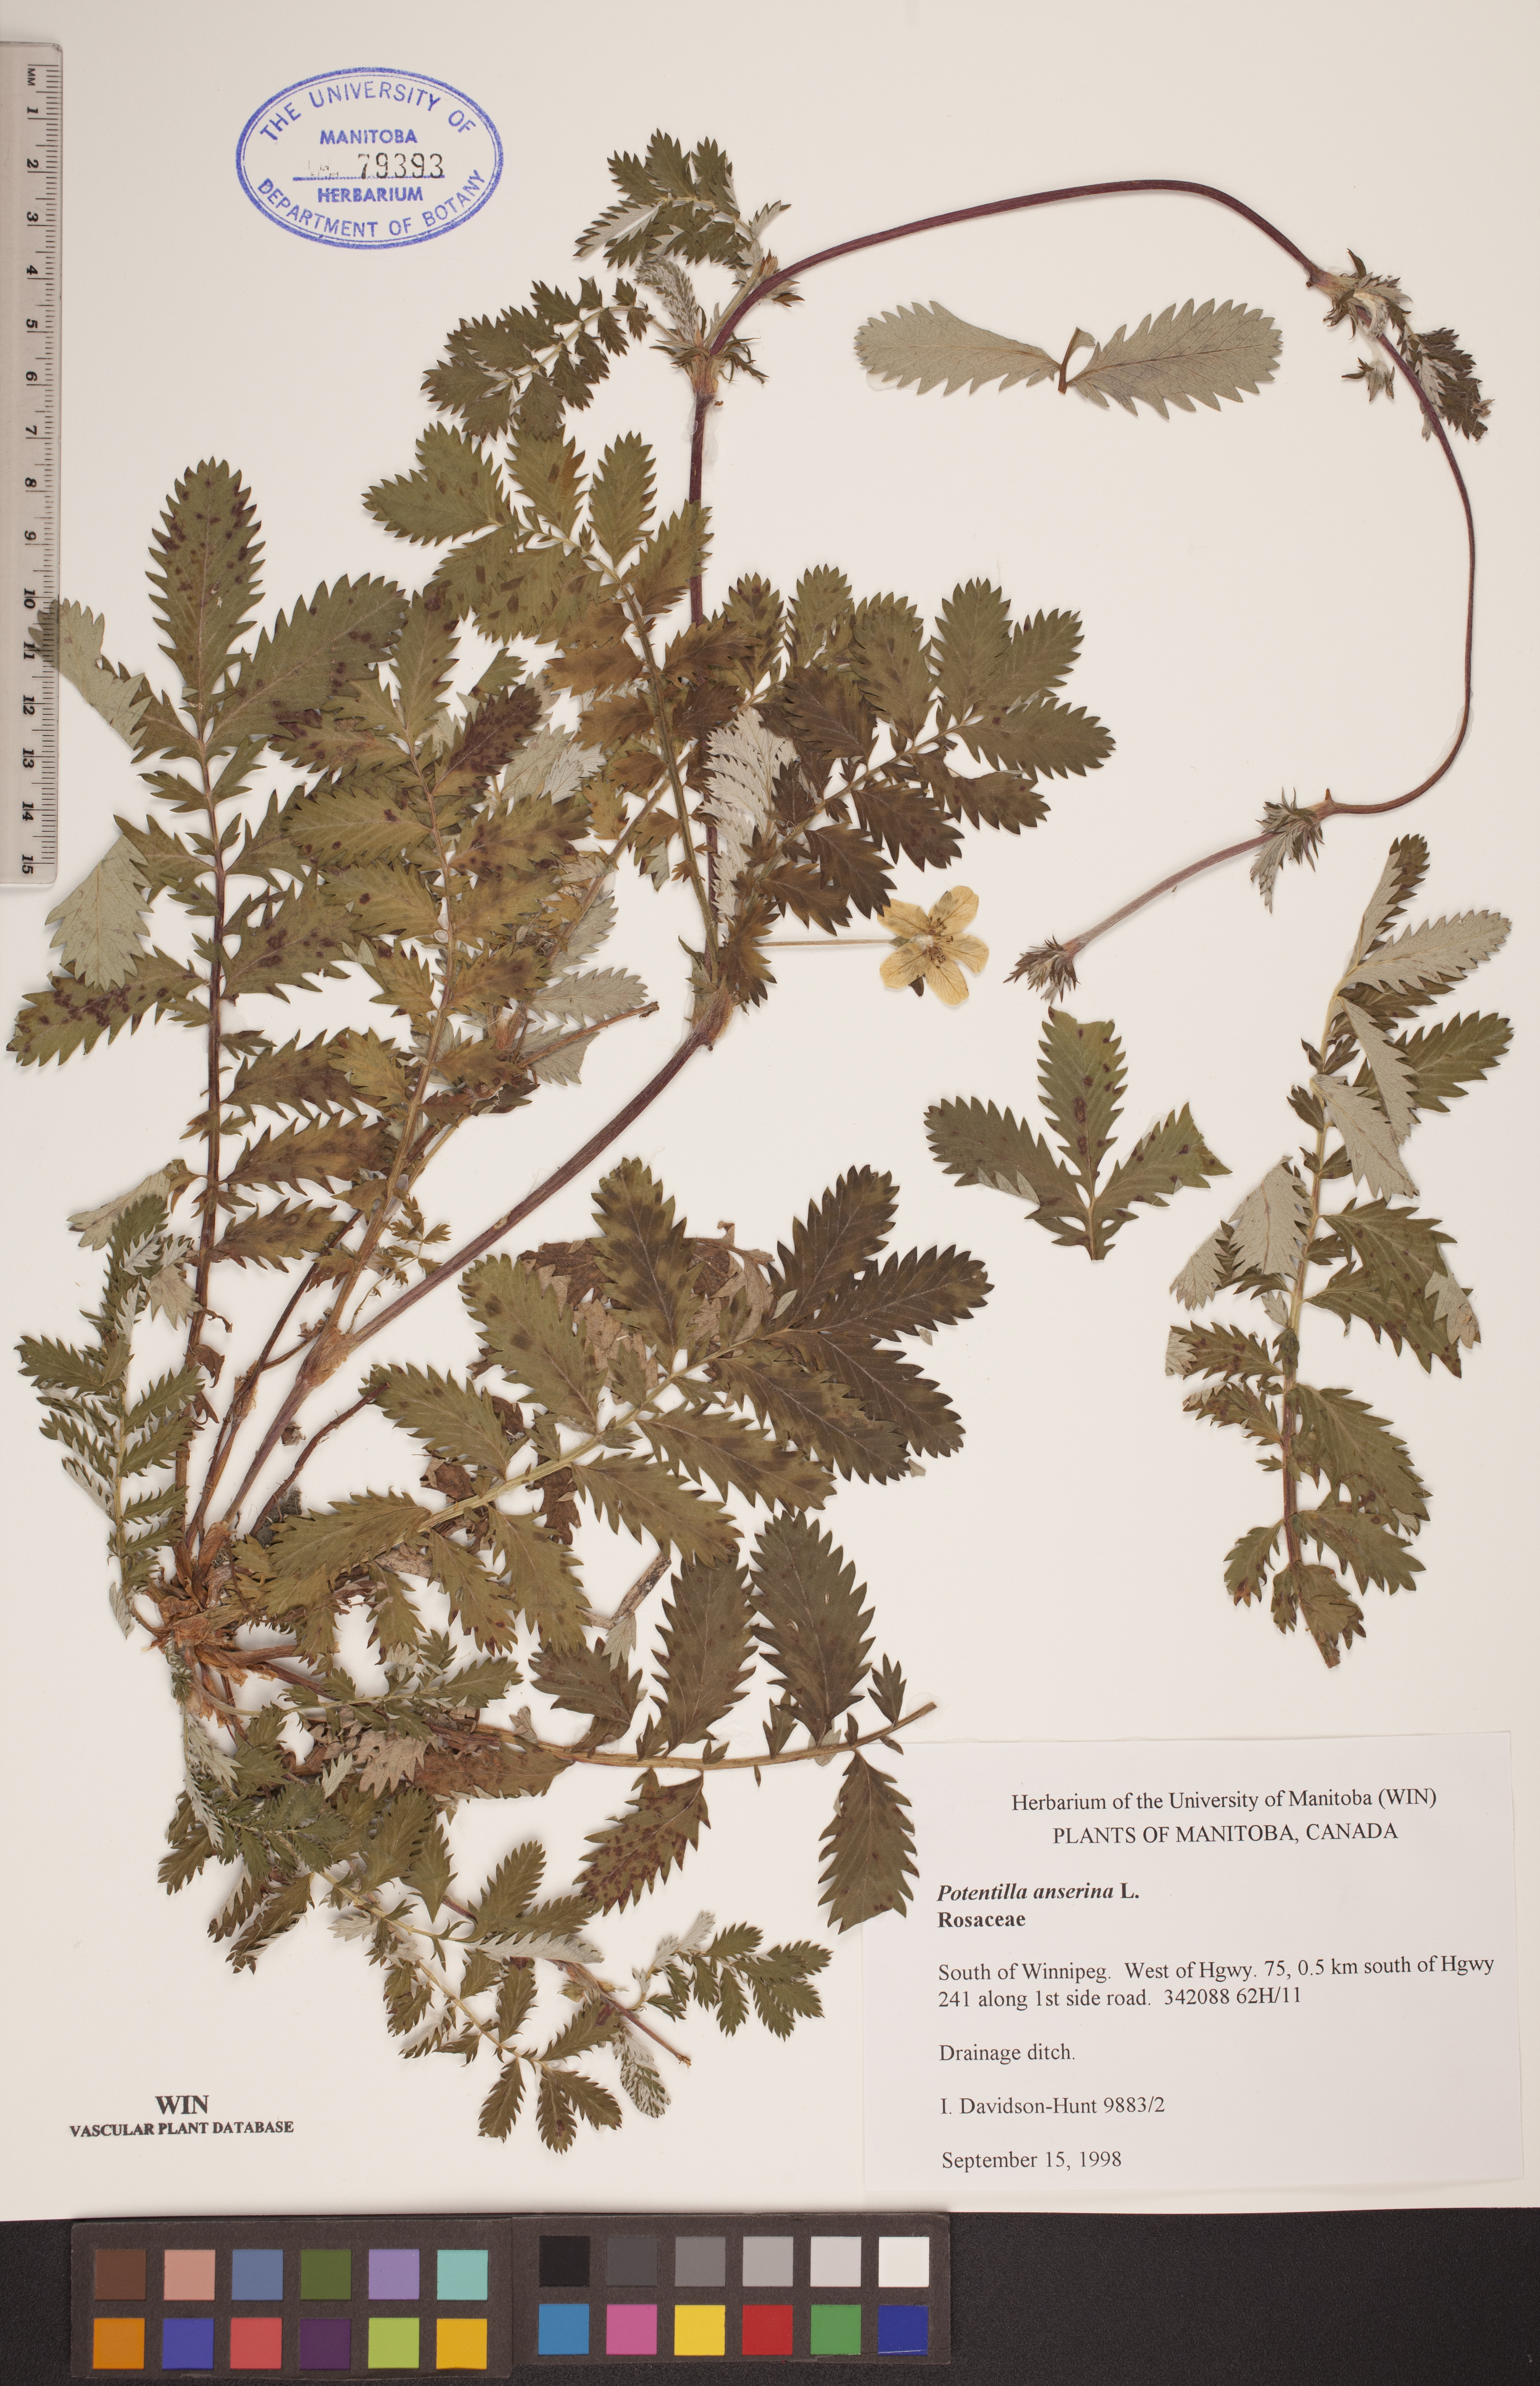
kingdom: Plantae
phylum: Tracheophyta
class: Magnoliopsida
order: Rosales
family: Rosaceae
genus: Argentina
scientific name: Argentina anserina
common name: Common silverweed
